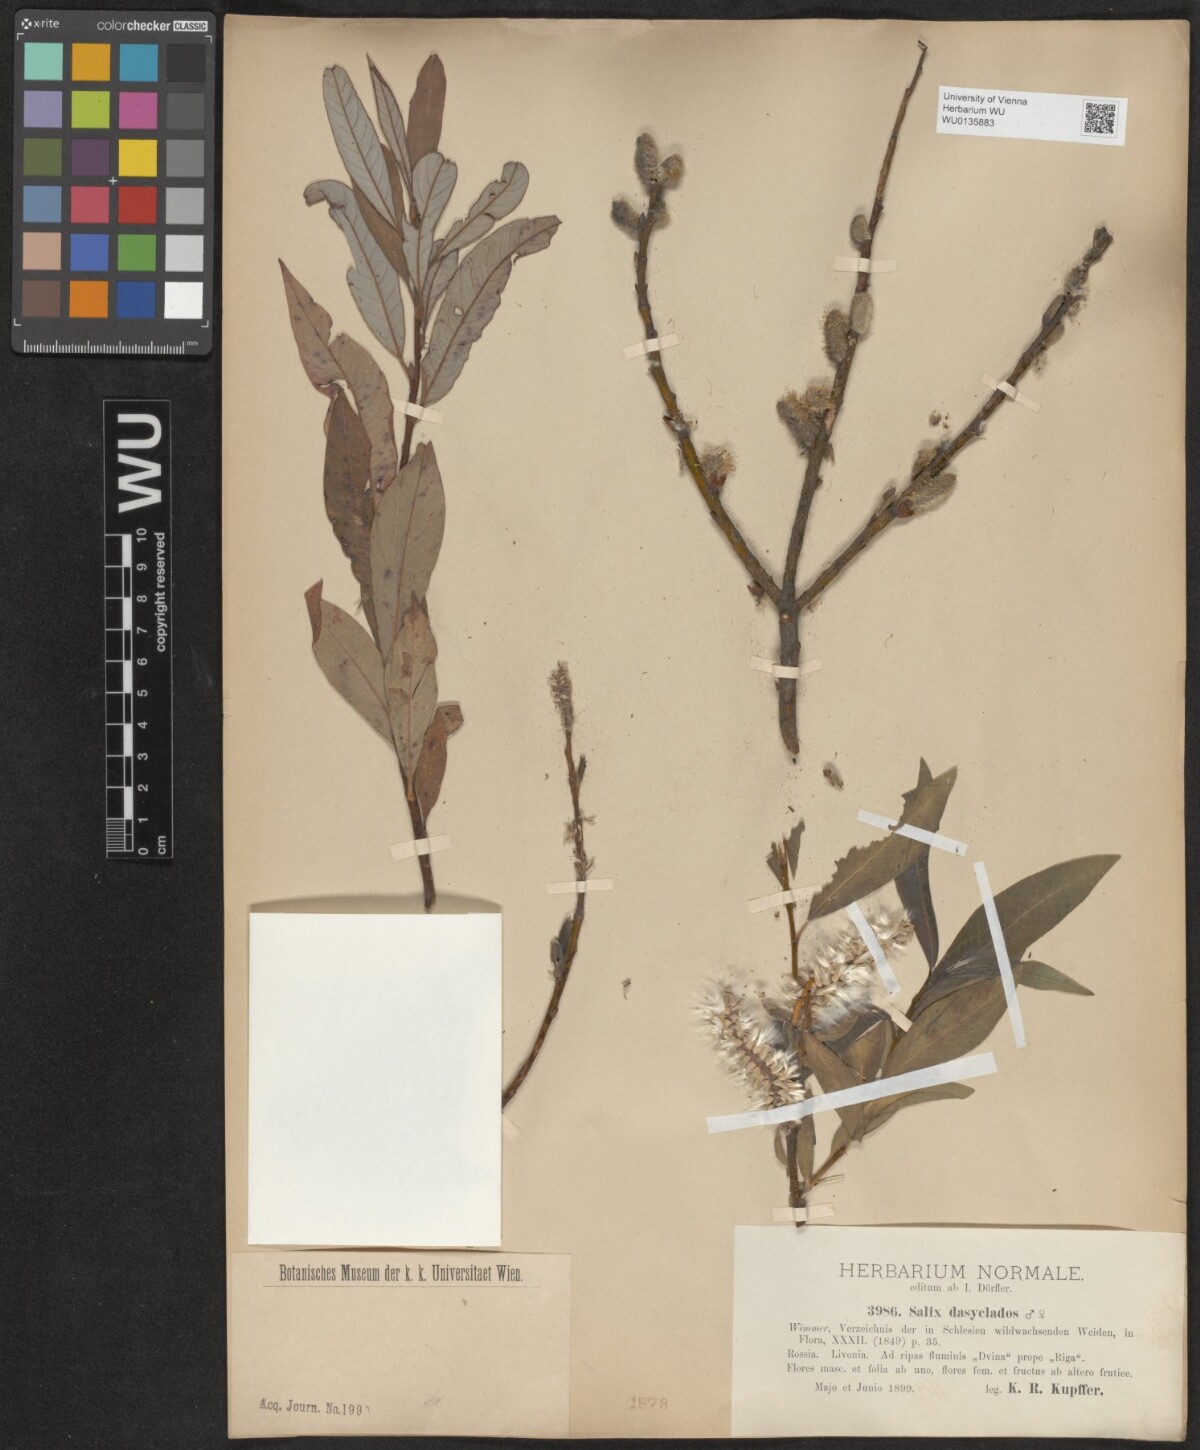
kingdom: Plantae
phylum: Tracheophyta
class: Magnoliopsida
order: Malpighiales
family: Salicaceae
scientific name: Salicaceae
